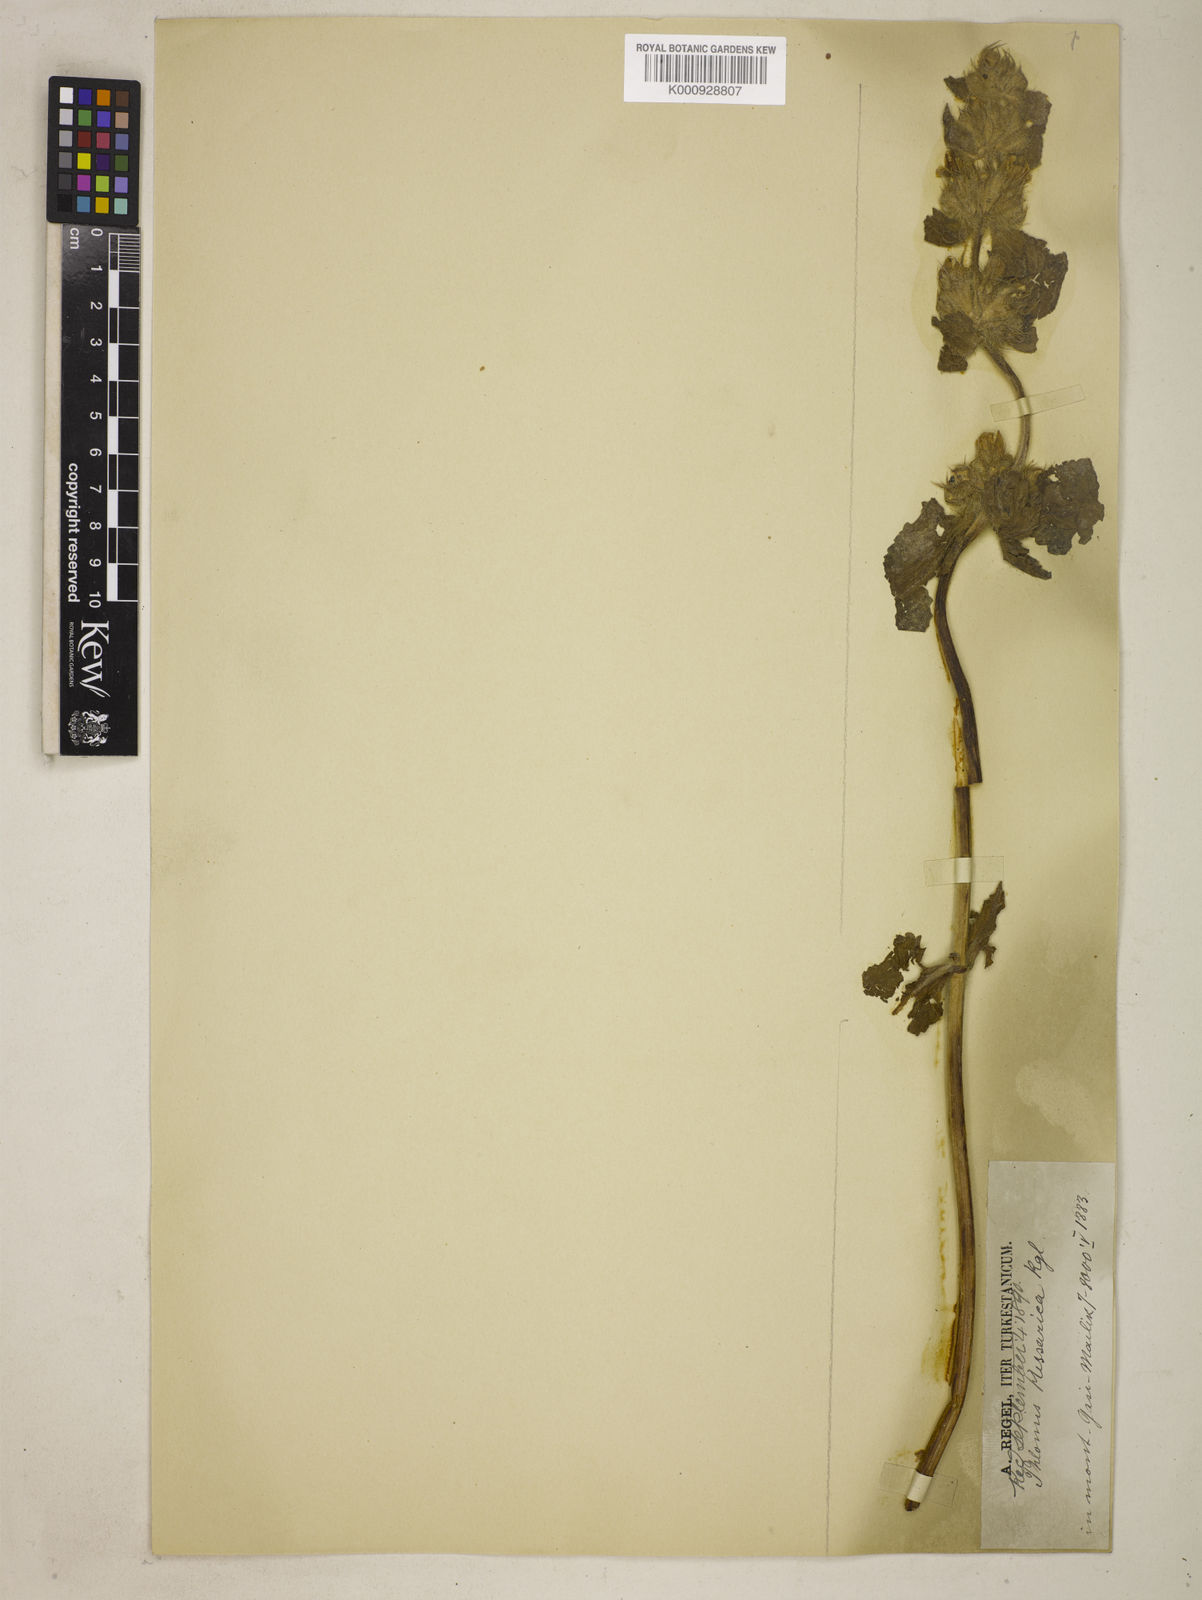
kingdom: Plantae
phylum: Tracheophyta
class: Magnoliopsida
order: Lamiales
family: Lamiaceae
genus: Phlomoides
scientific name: Phlomoides arctifolia
